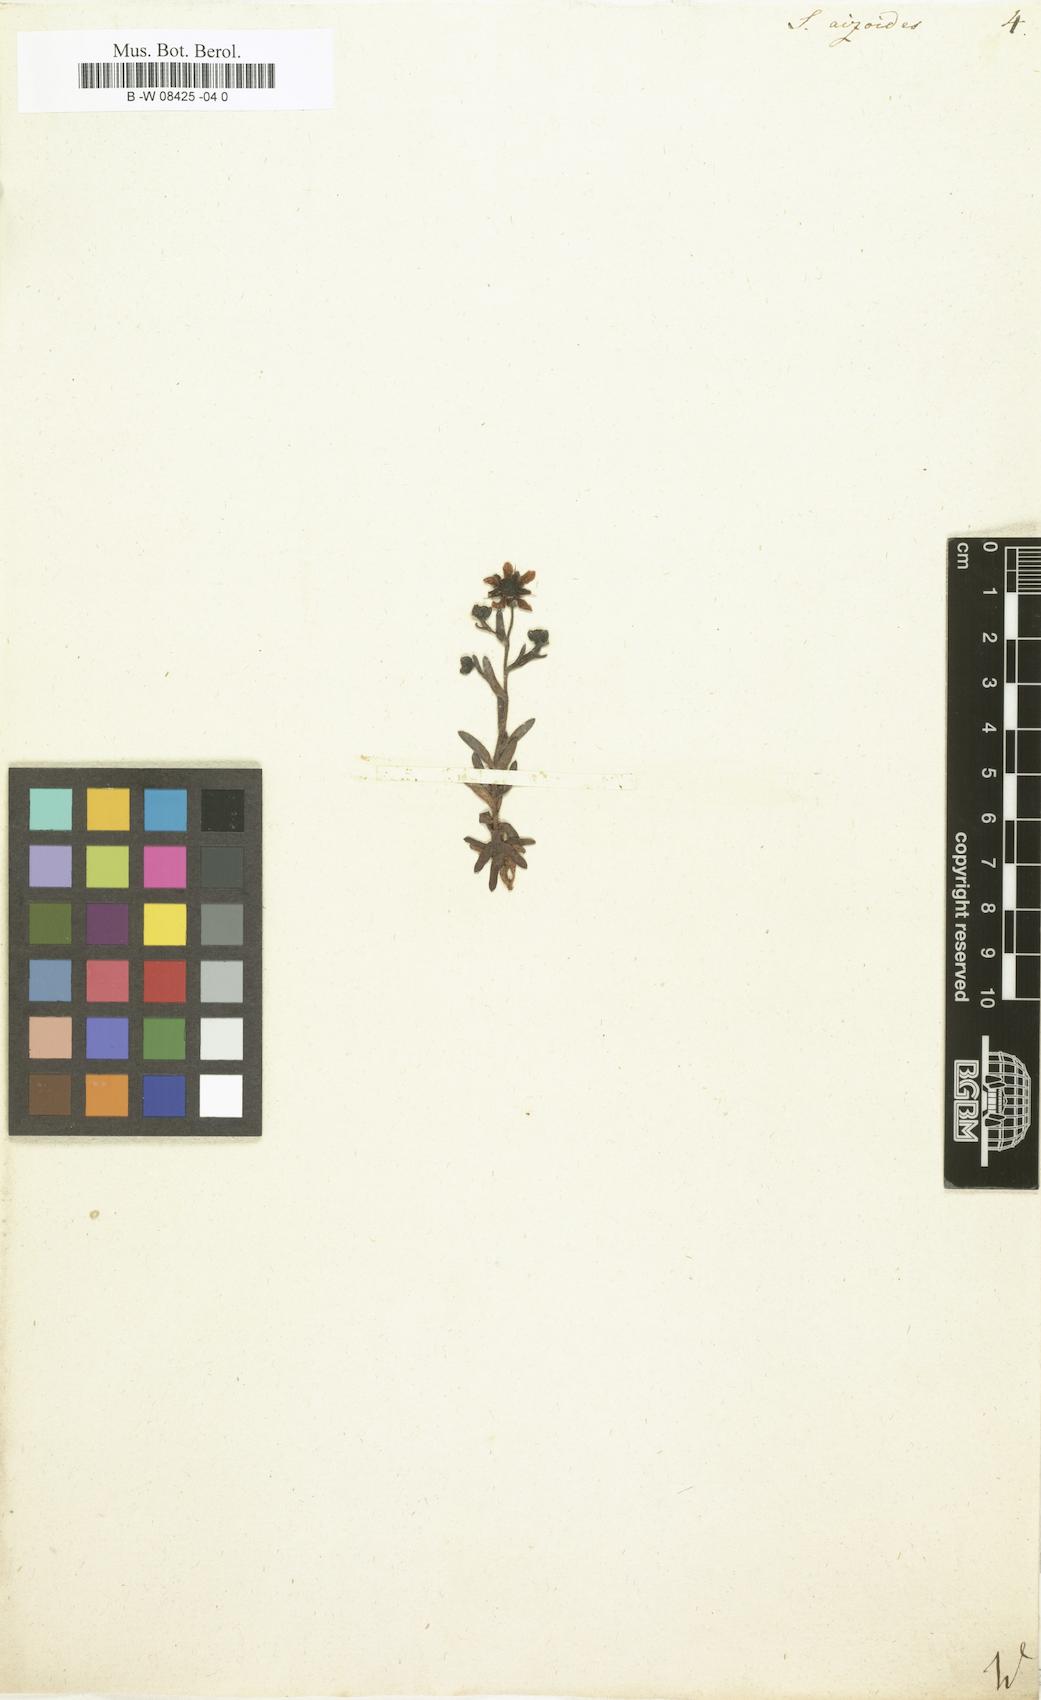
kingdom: Plantae
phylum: Tracheophyta
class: Magnoliopsida
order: Saxifragales
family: Saxifragaceae
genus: Saxifraga
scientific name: Saxifraga aizoides
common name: Yellow mountain saxifrage
